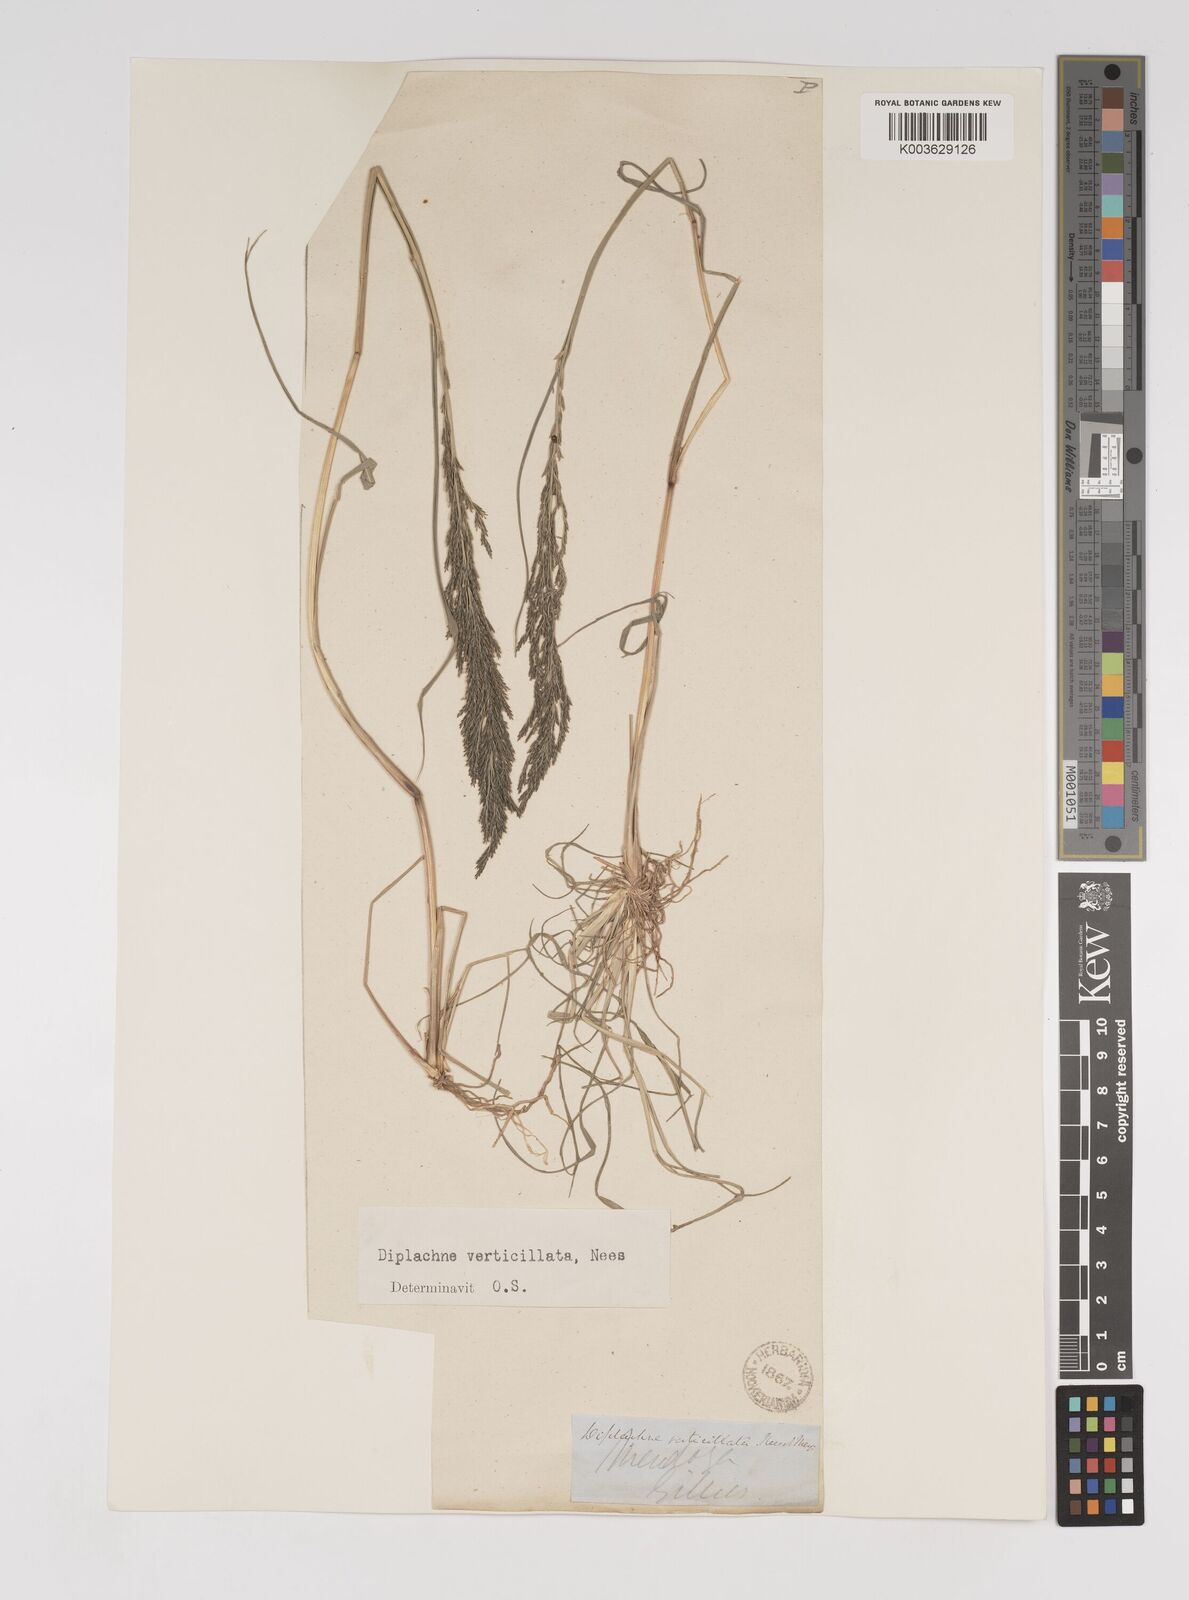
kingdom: Plantae
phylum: Tracheophyta
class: Liliopsida
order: Poales
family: Poaceae
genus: Diplachne
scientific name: Diplachne fusca
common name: Brown beetle grass
